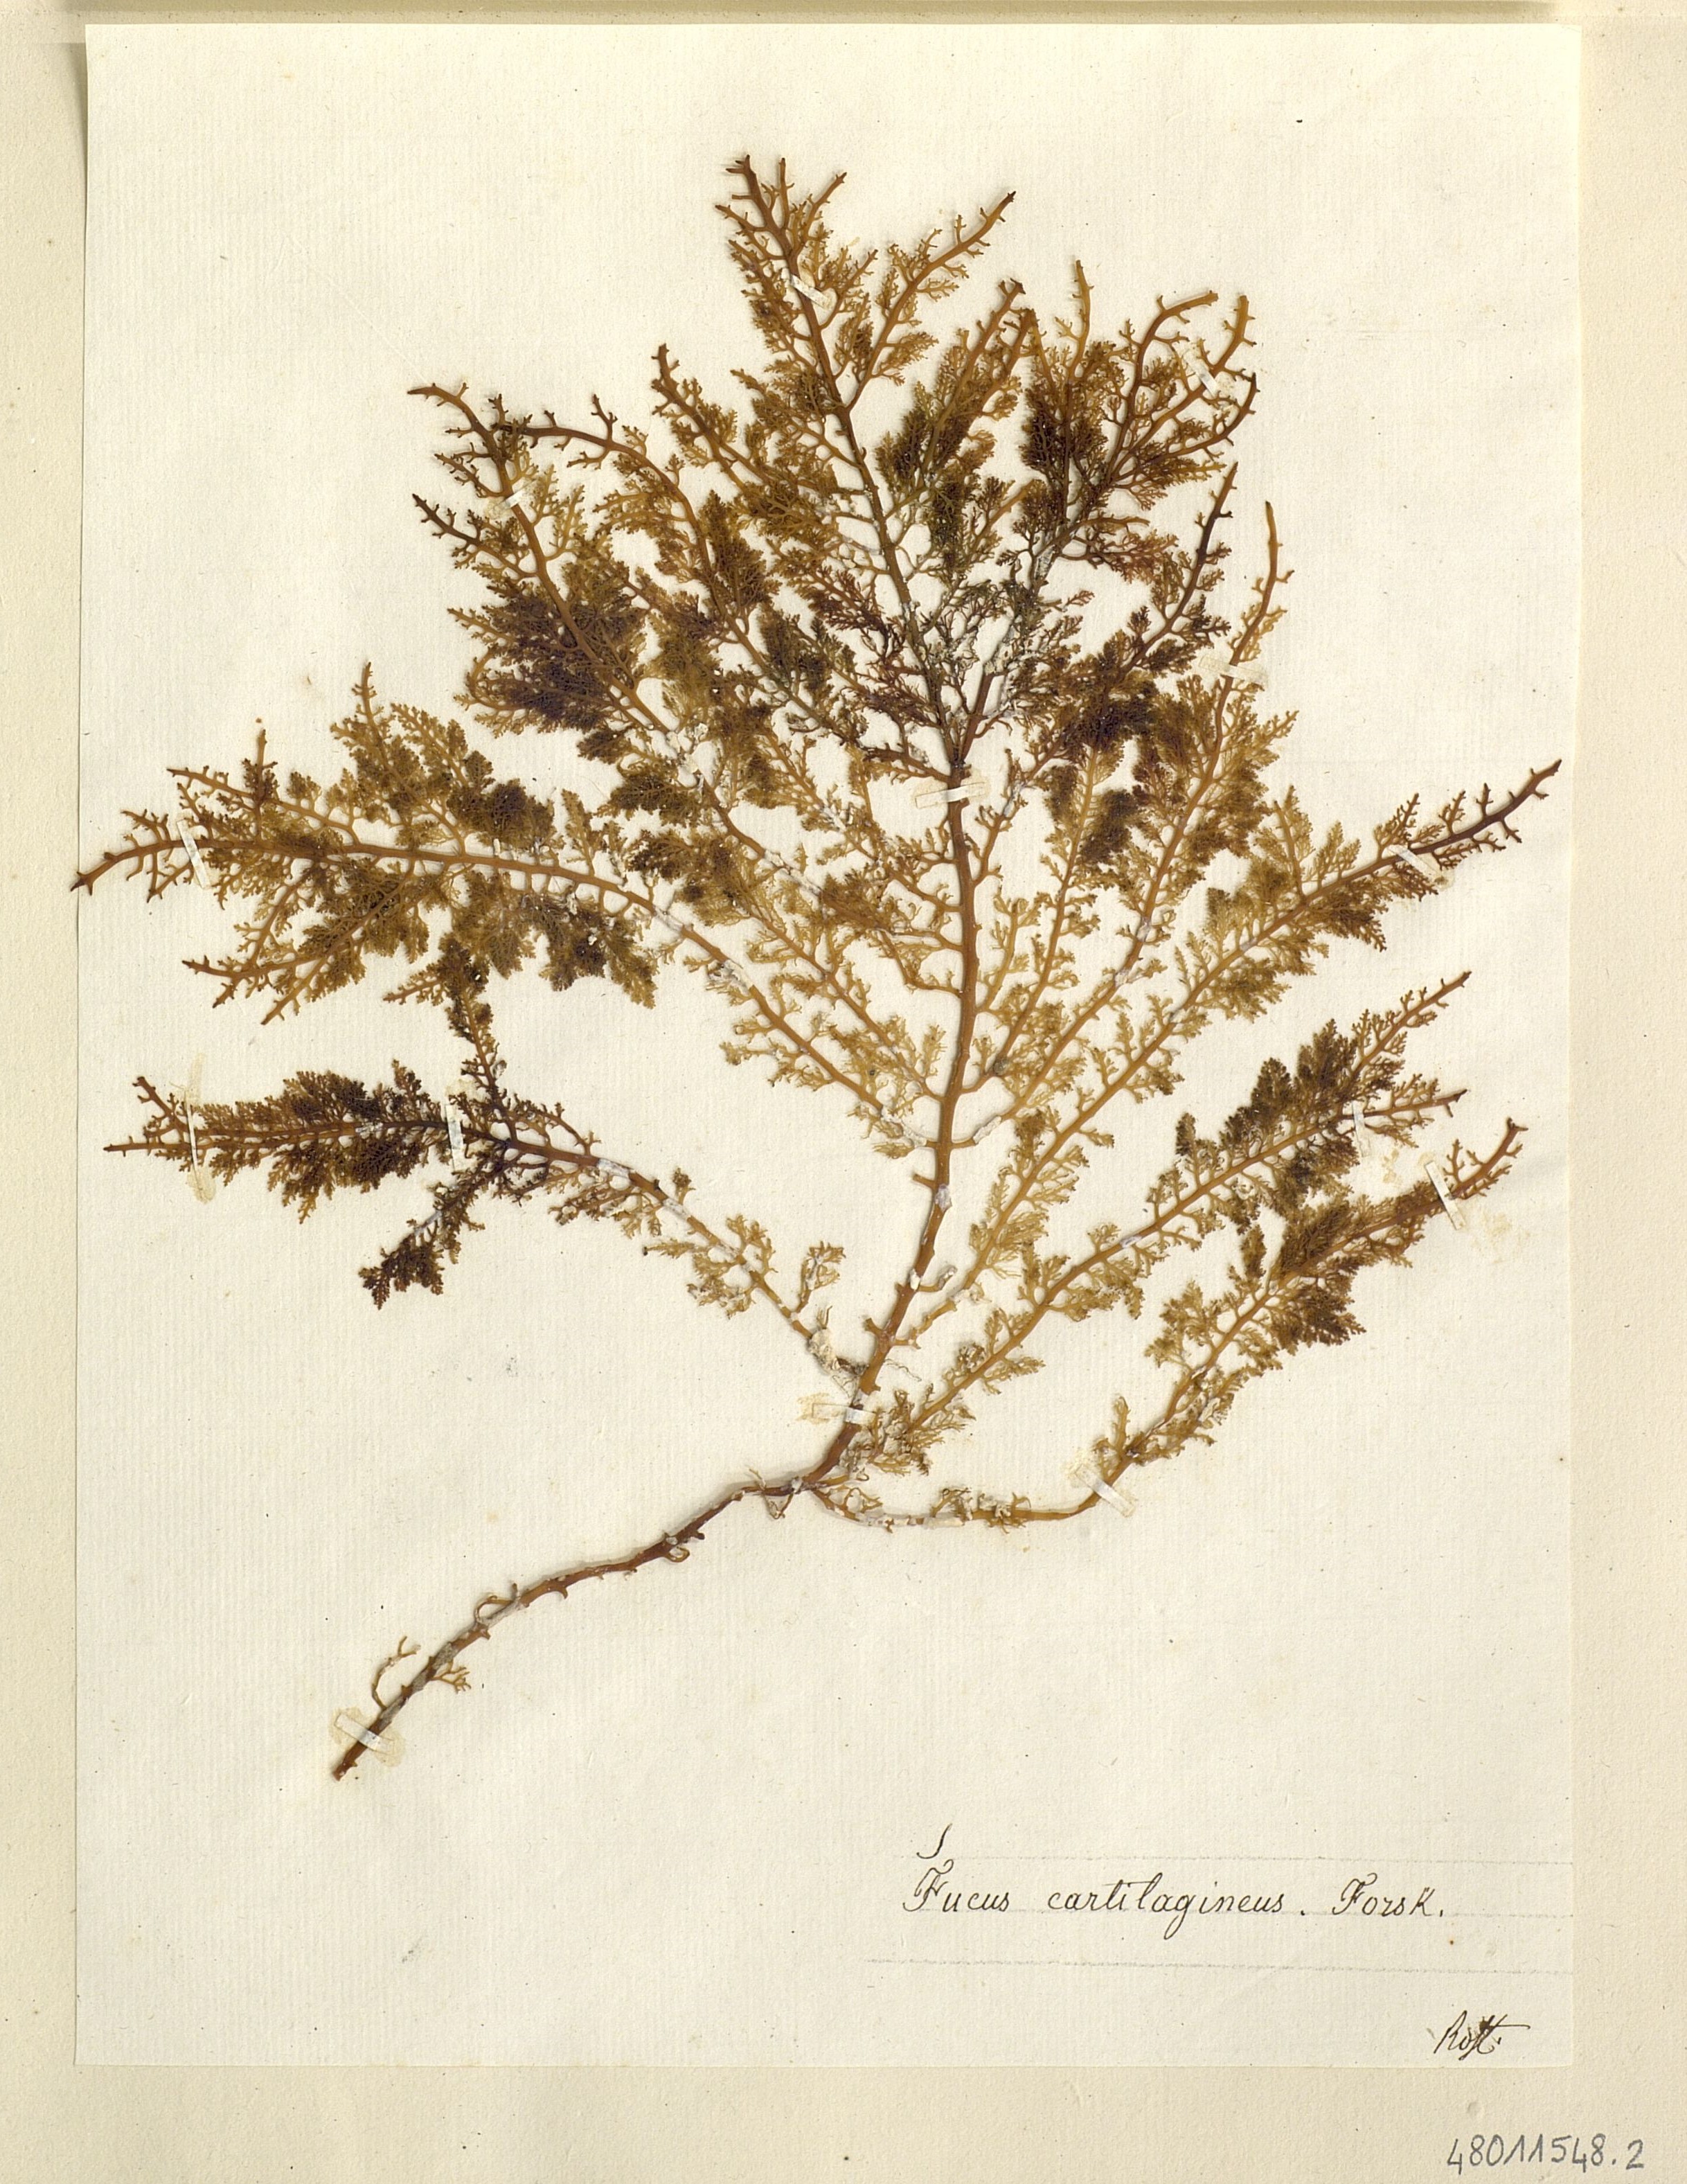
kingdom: Chromista
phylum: Ochrophyta
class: Phaeophyceae
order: Fucales
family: Fucaceae
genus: Fucus
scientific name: Fucus
